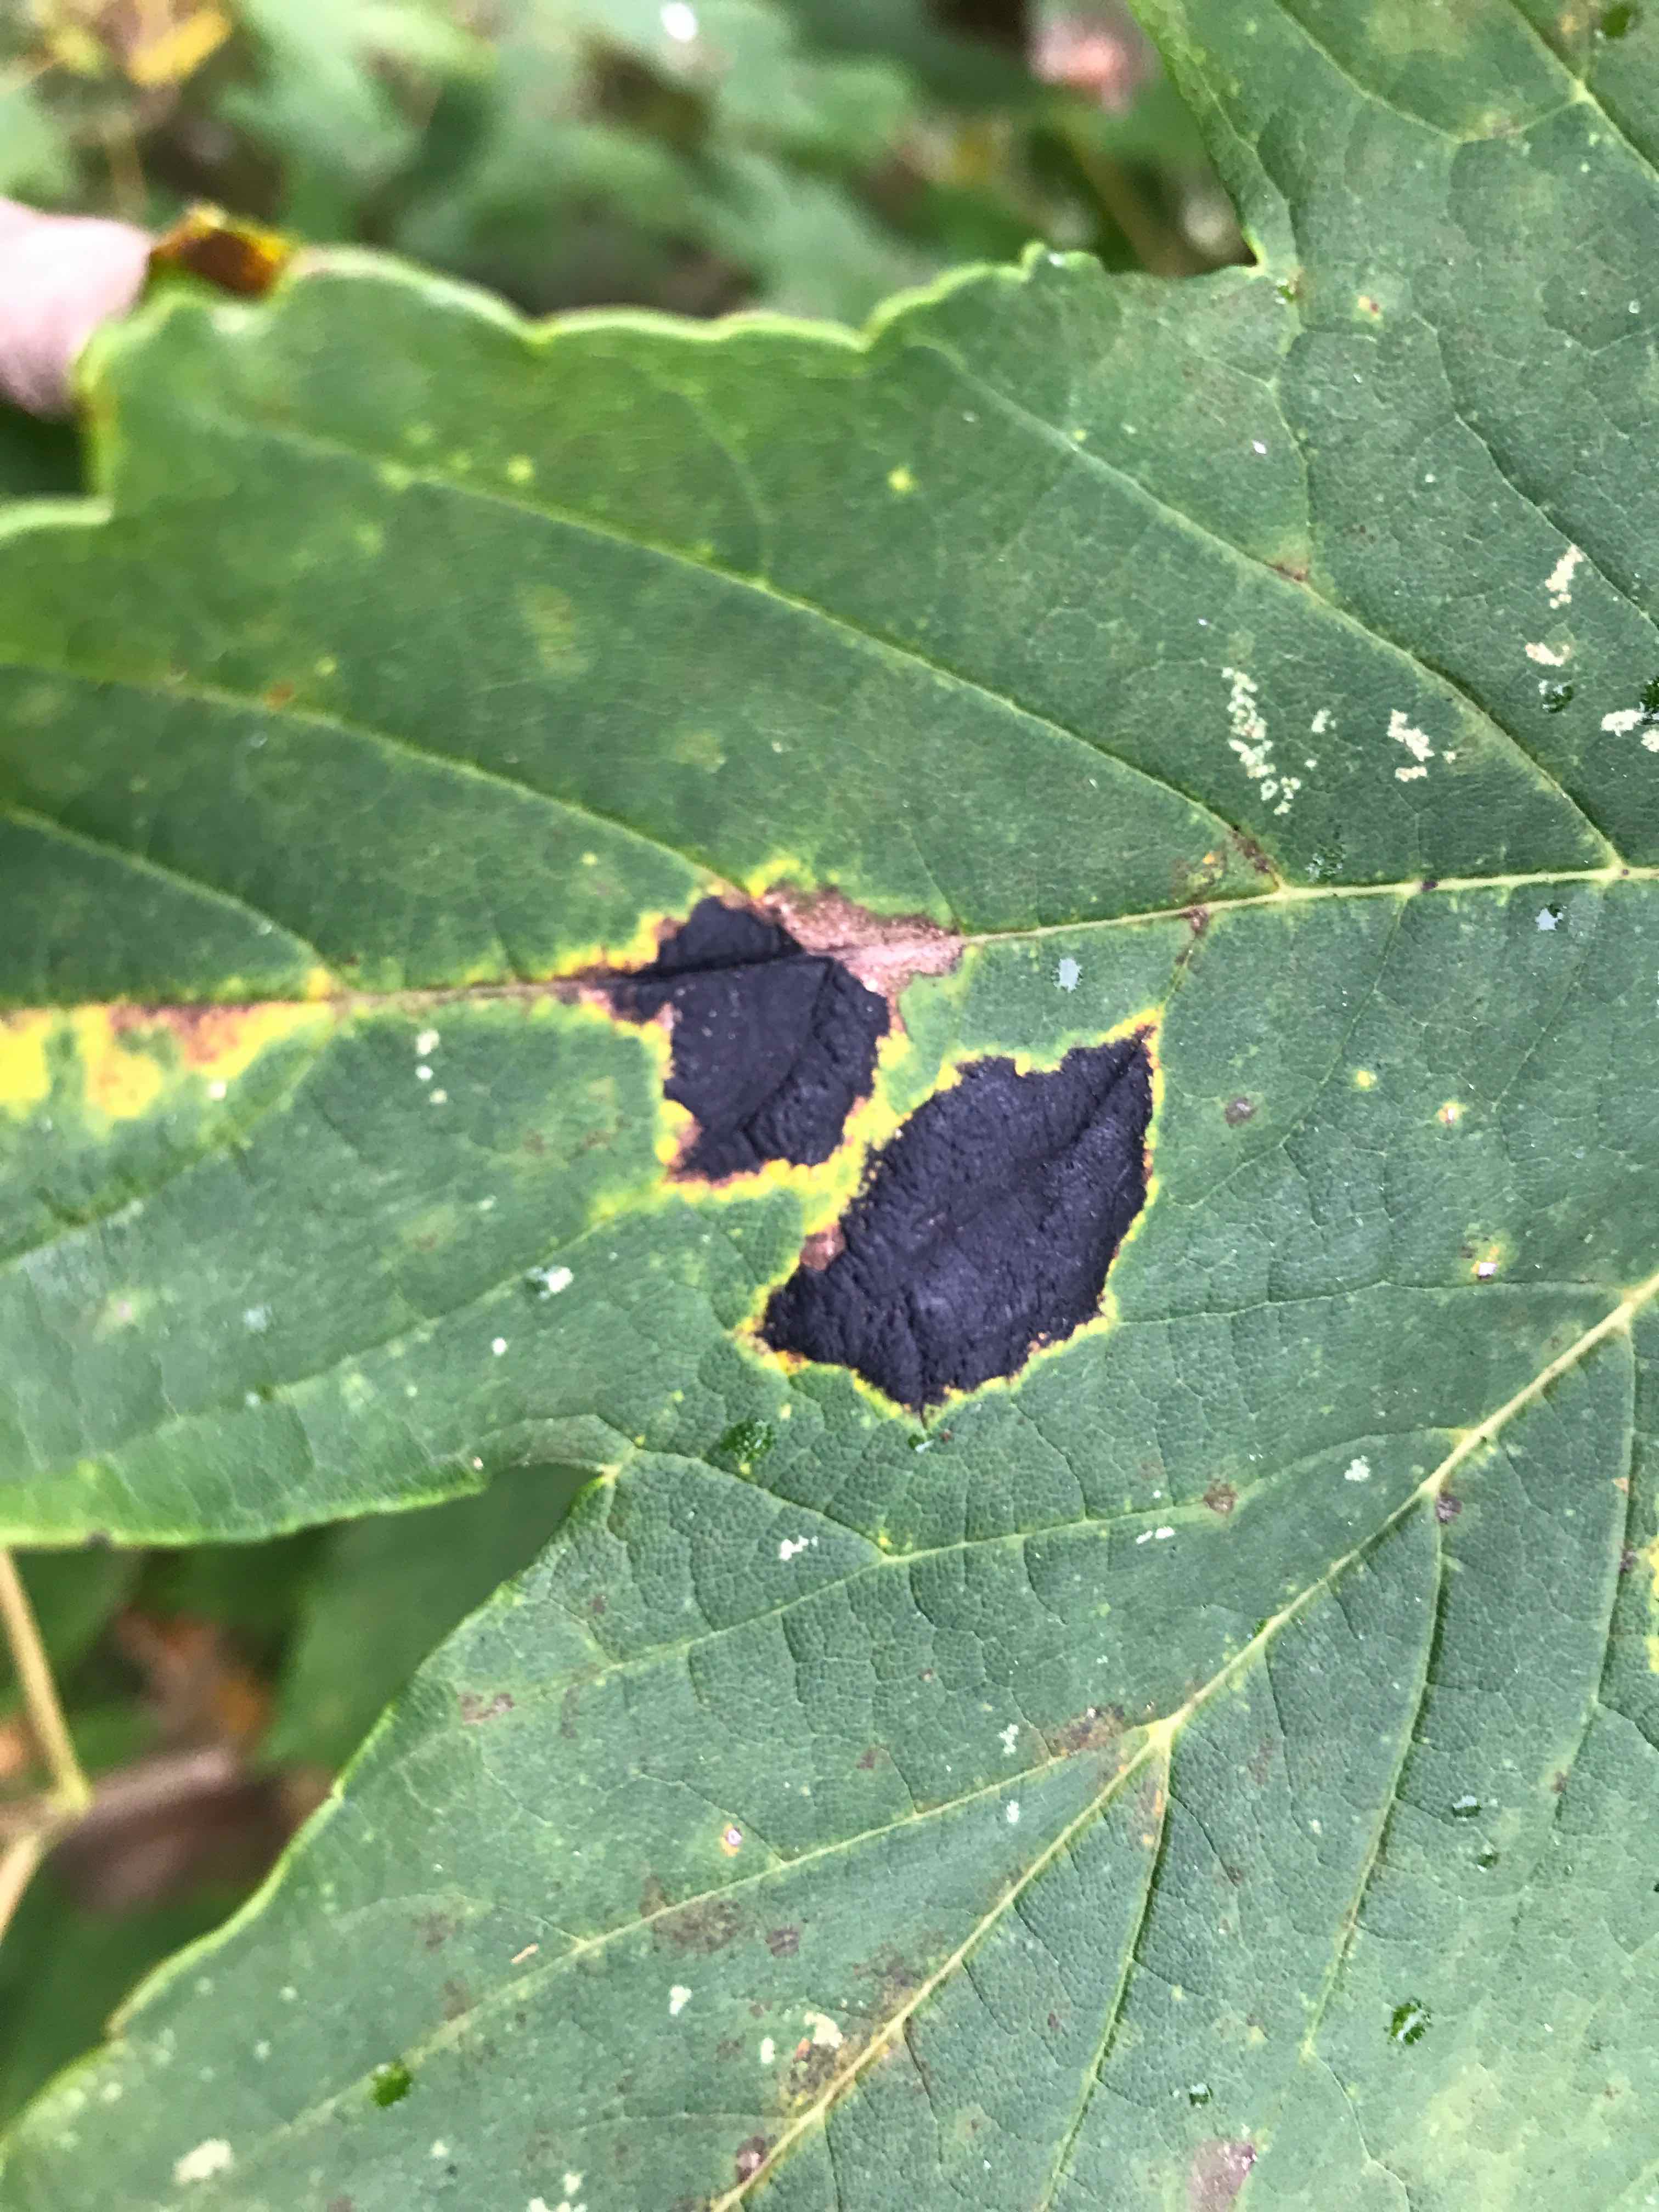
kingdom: Fungi
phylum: Ascomycota
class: Leotiomycetes
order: Rhytismatales
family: Rhytismataceae
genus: Rhytisma
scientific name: Rhytisma acerinum
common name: ahorn-rynkeplet
